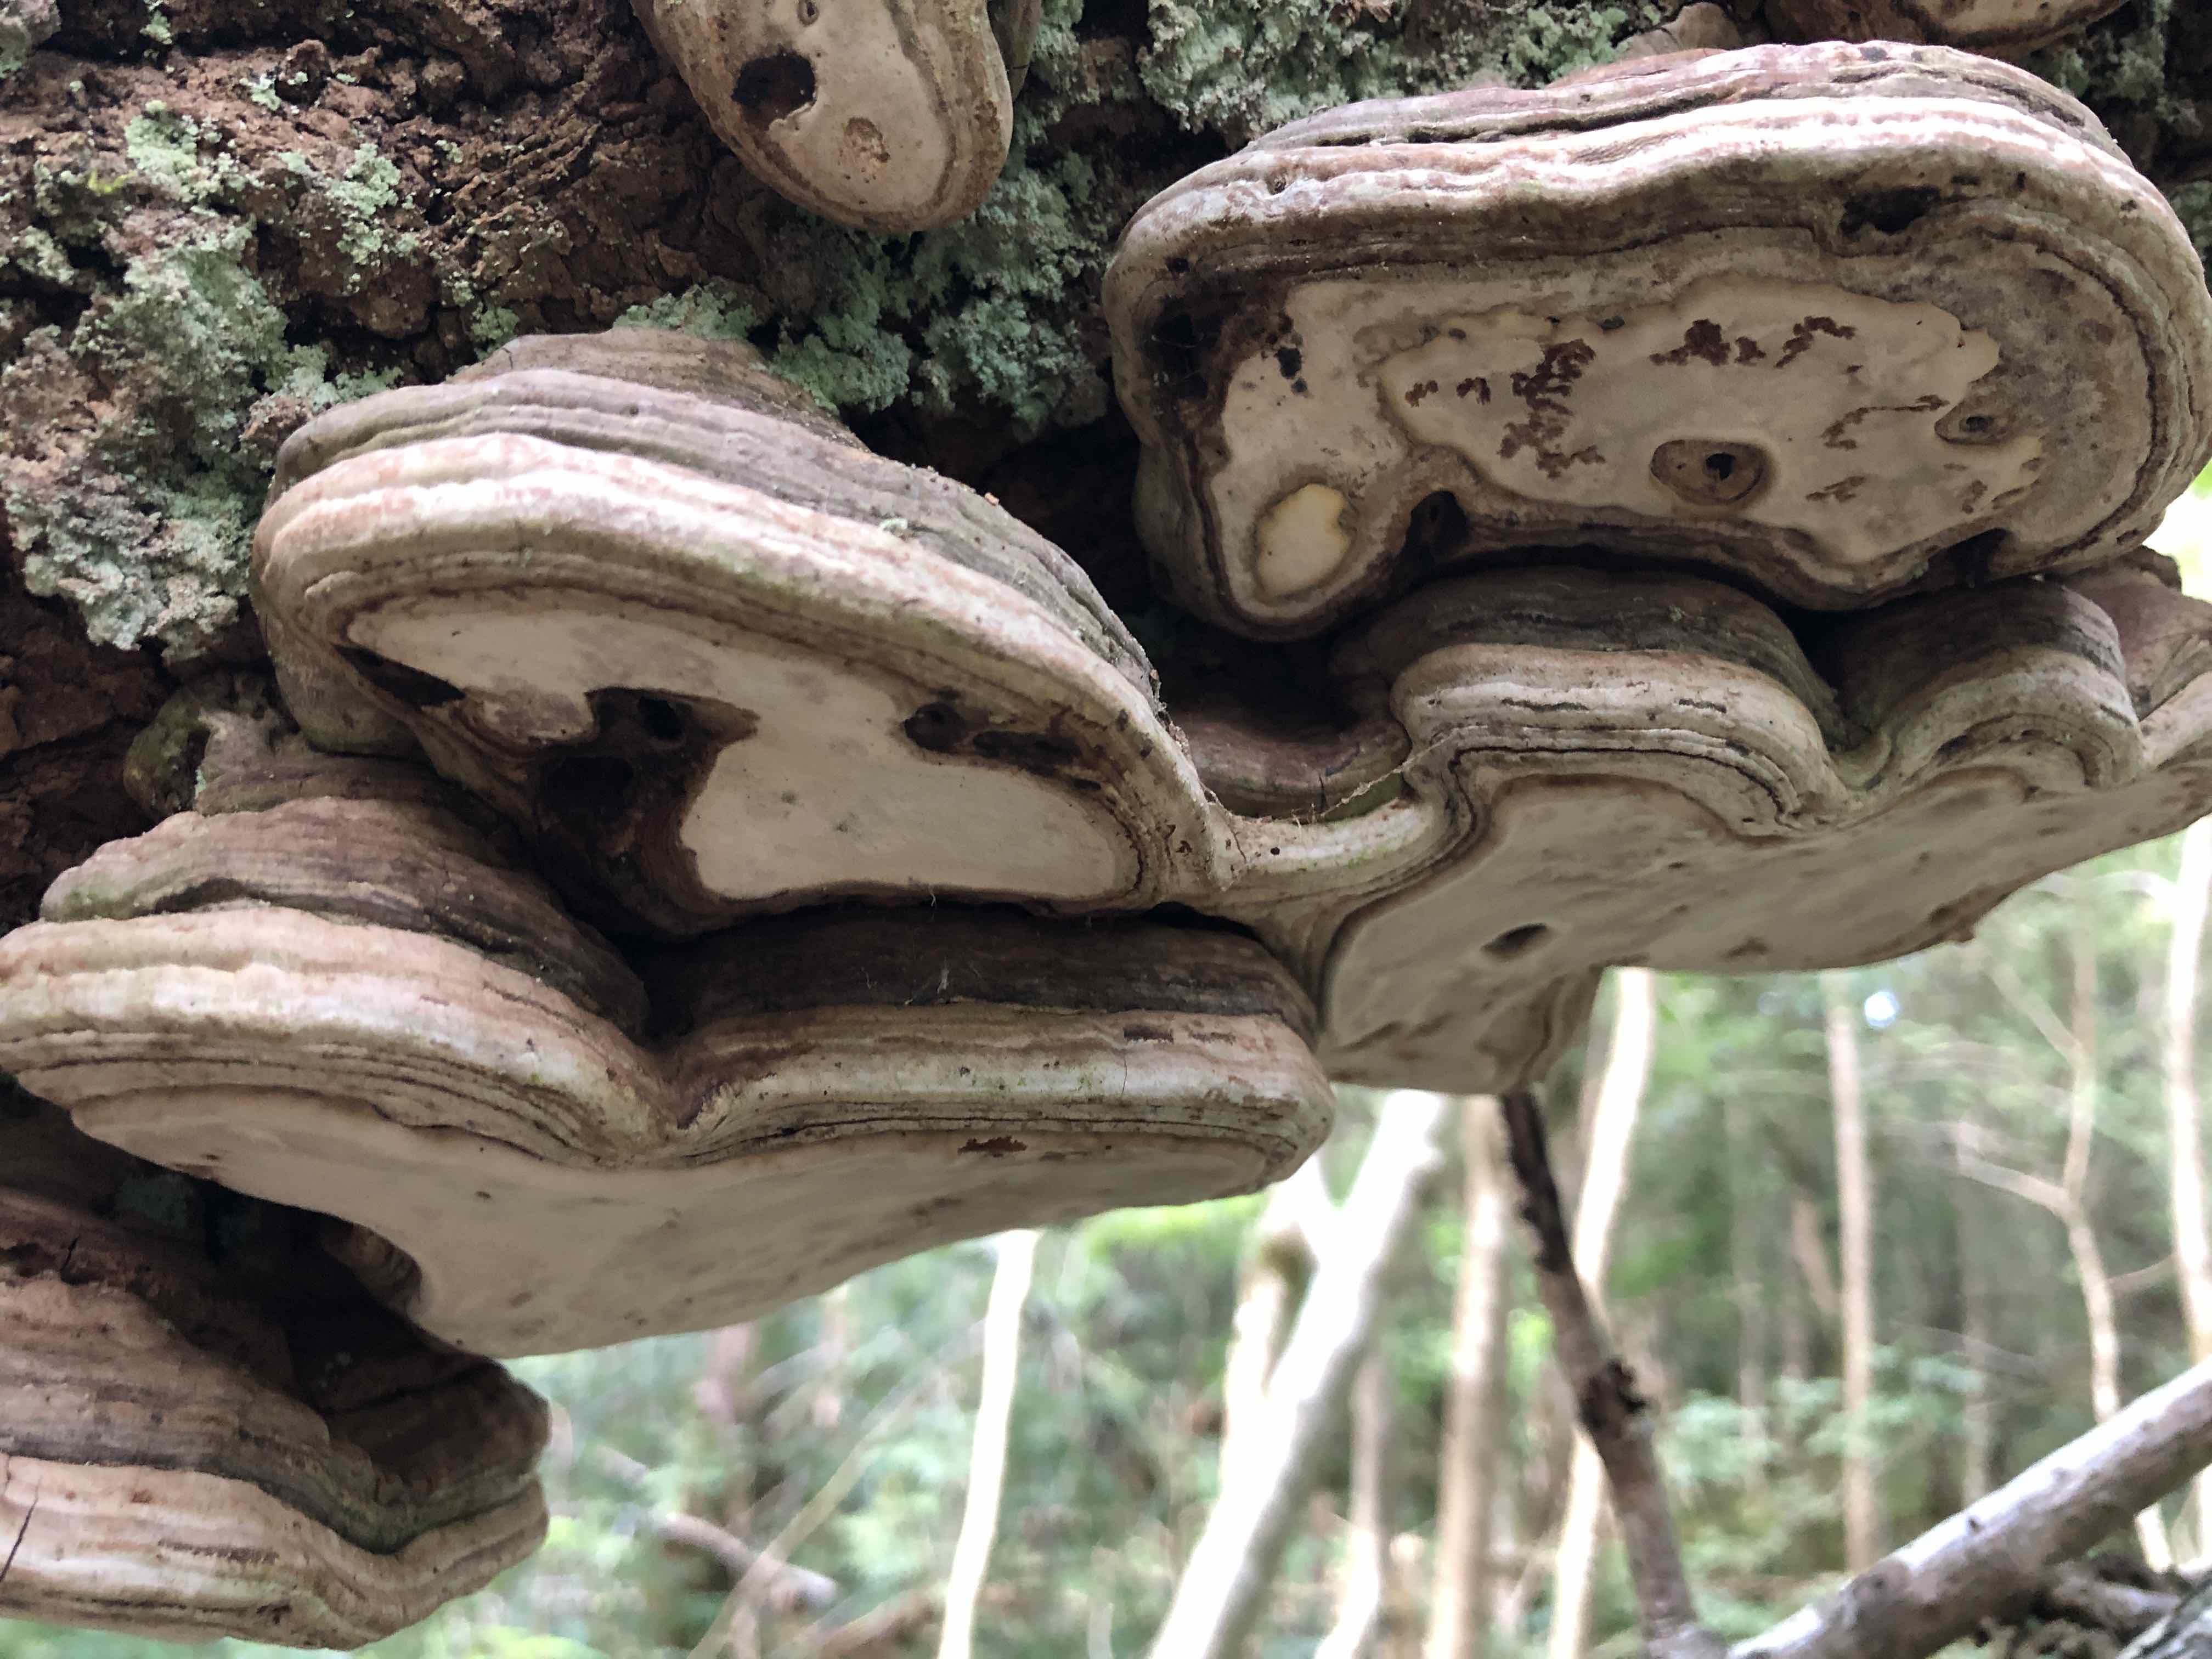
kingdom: Fungi
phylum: Basidiomycota
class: Agaricomycetes
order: Polyporales
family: Polyporaceae
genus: Ganoderma
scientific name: Ganoderma applanatum
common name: flad lakporesvamp
